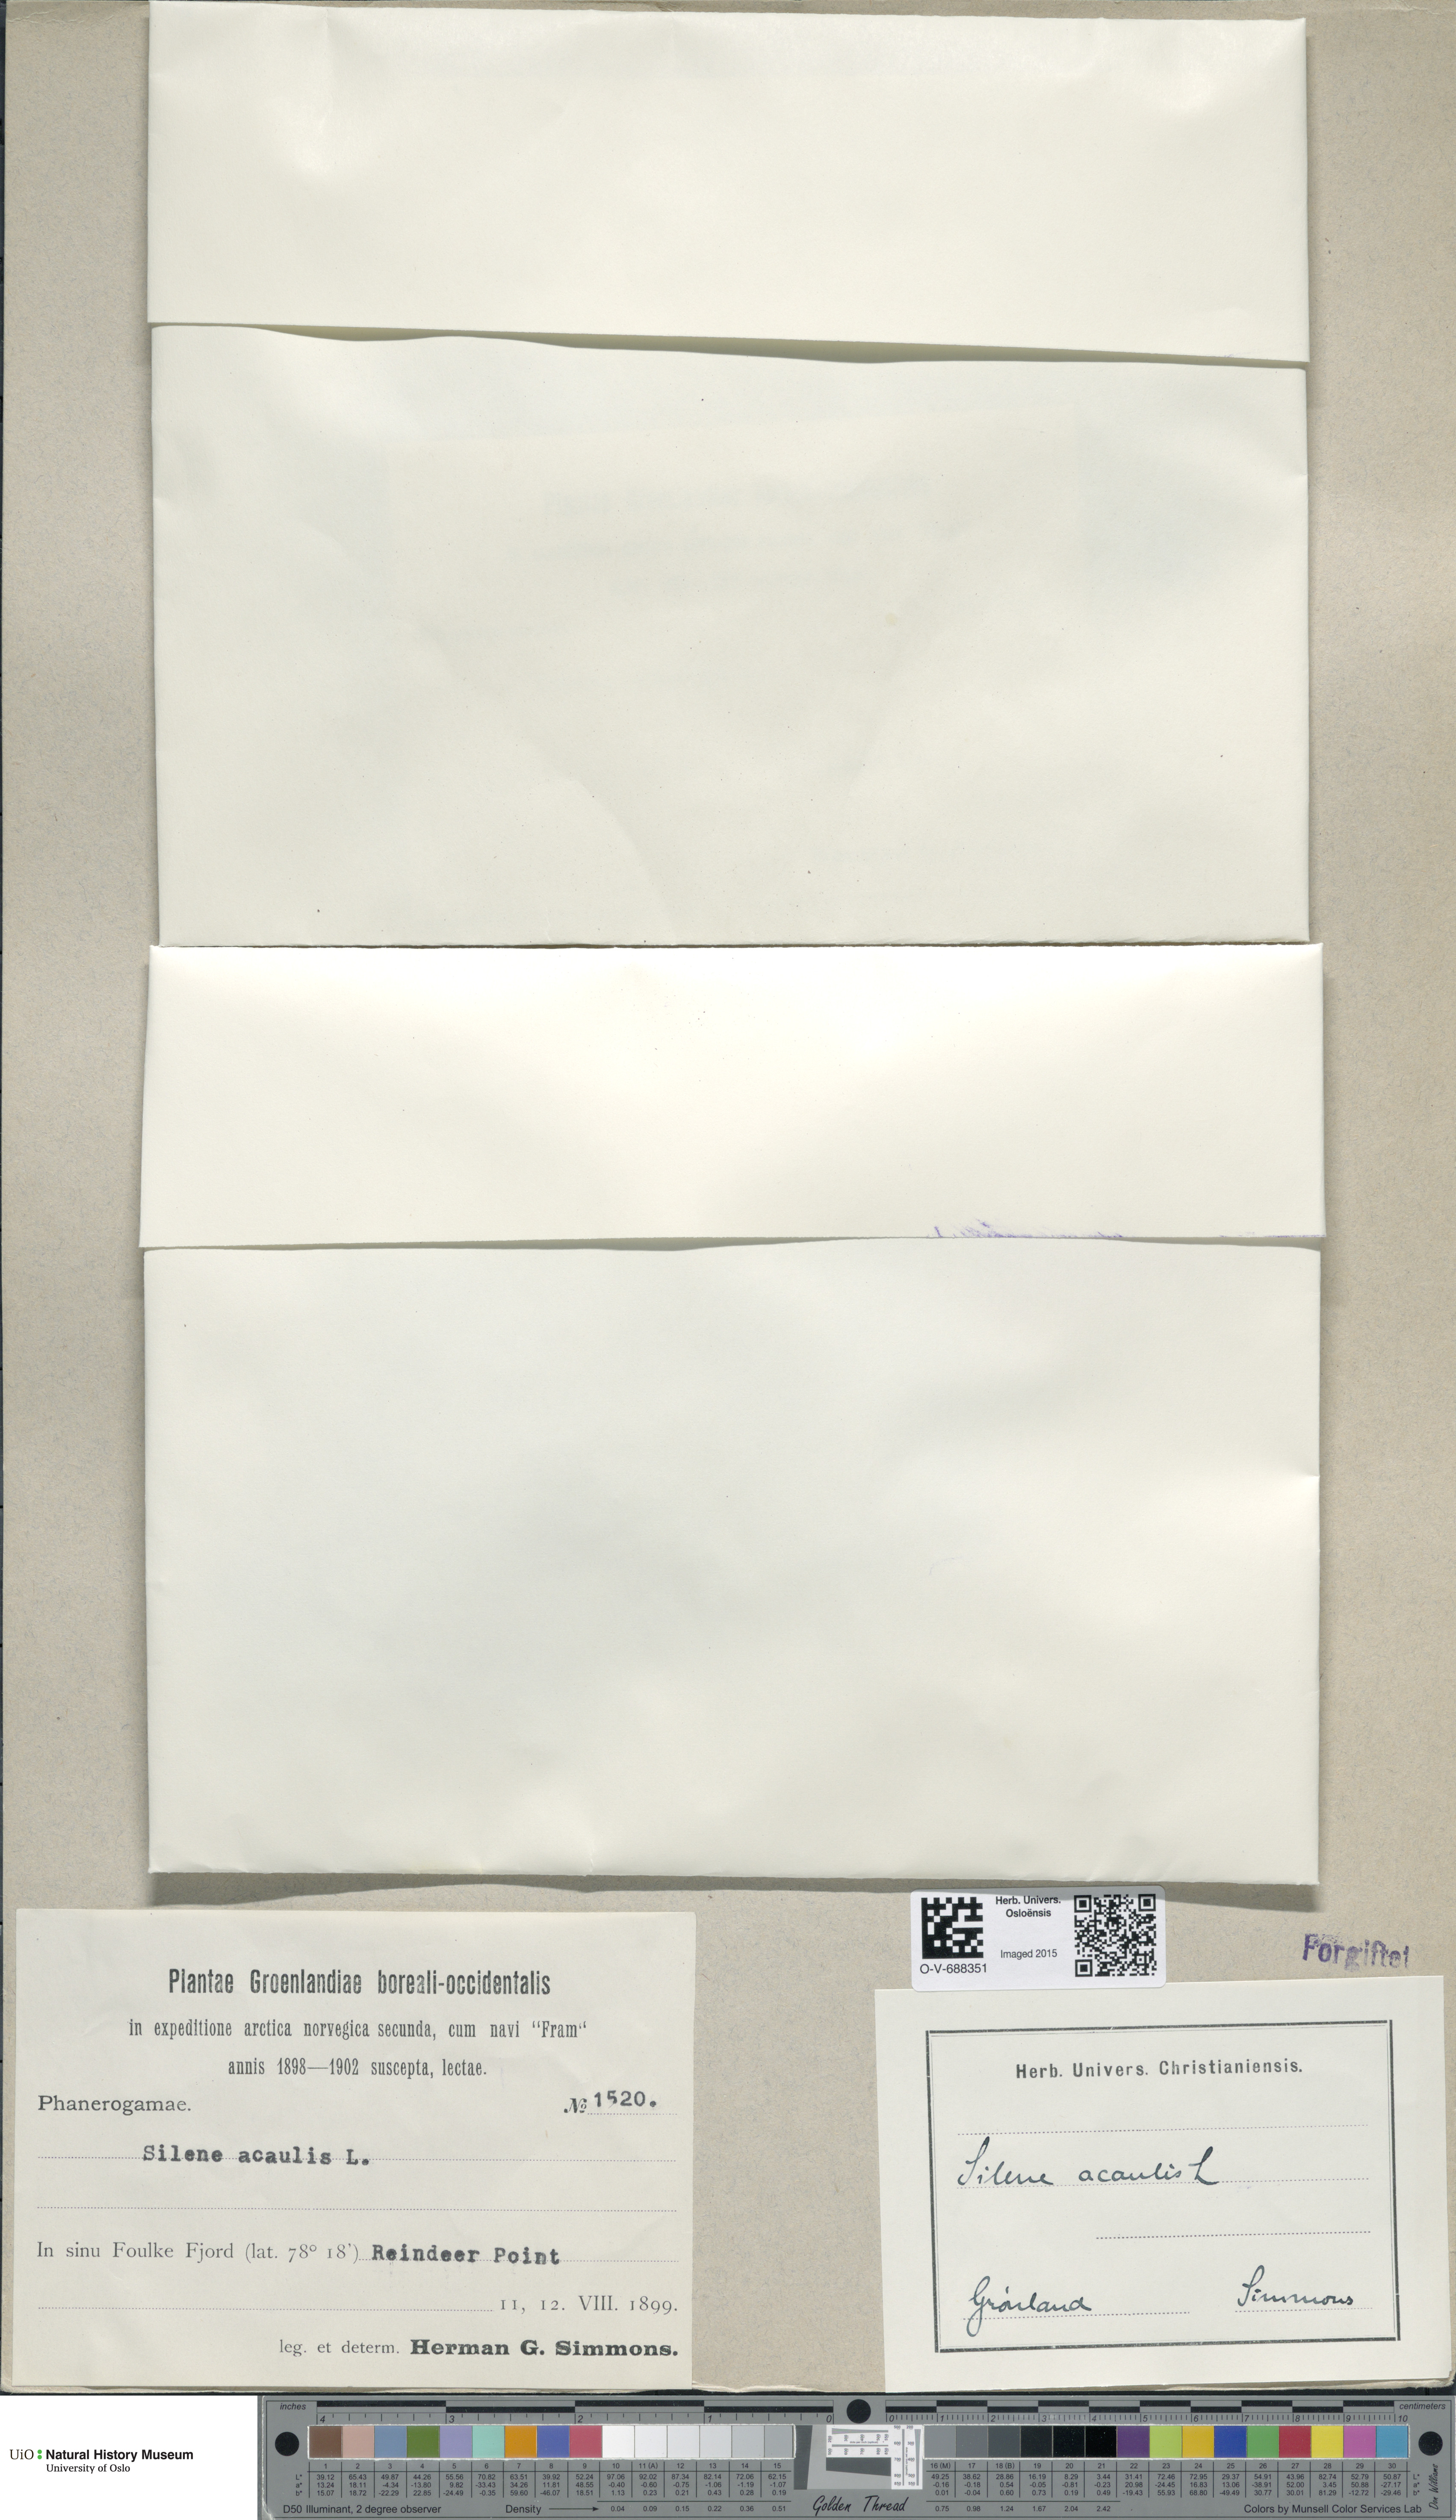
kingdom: Plantae
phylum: Tracheophyta
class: Magnoliopsida
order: Caryophyllales
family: Caryophyllaceae
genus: Silene
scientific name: Silene acaulis
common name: Moss campion
